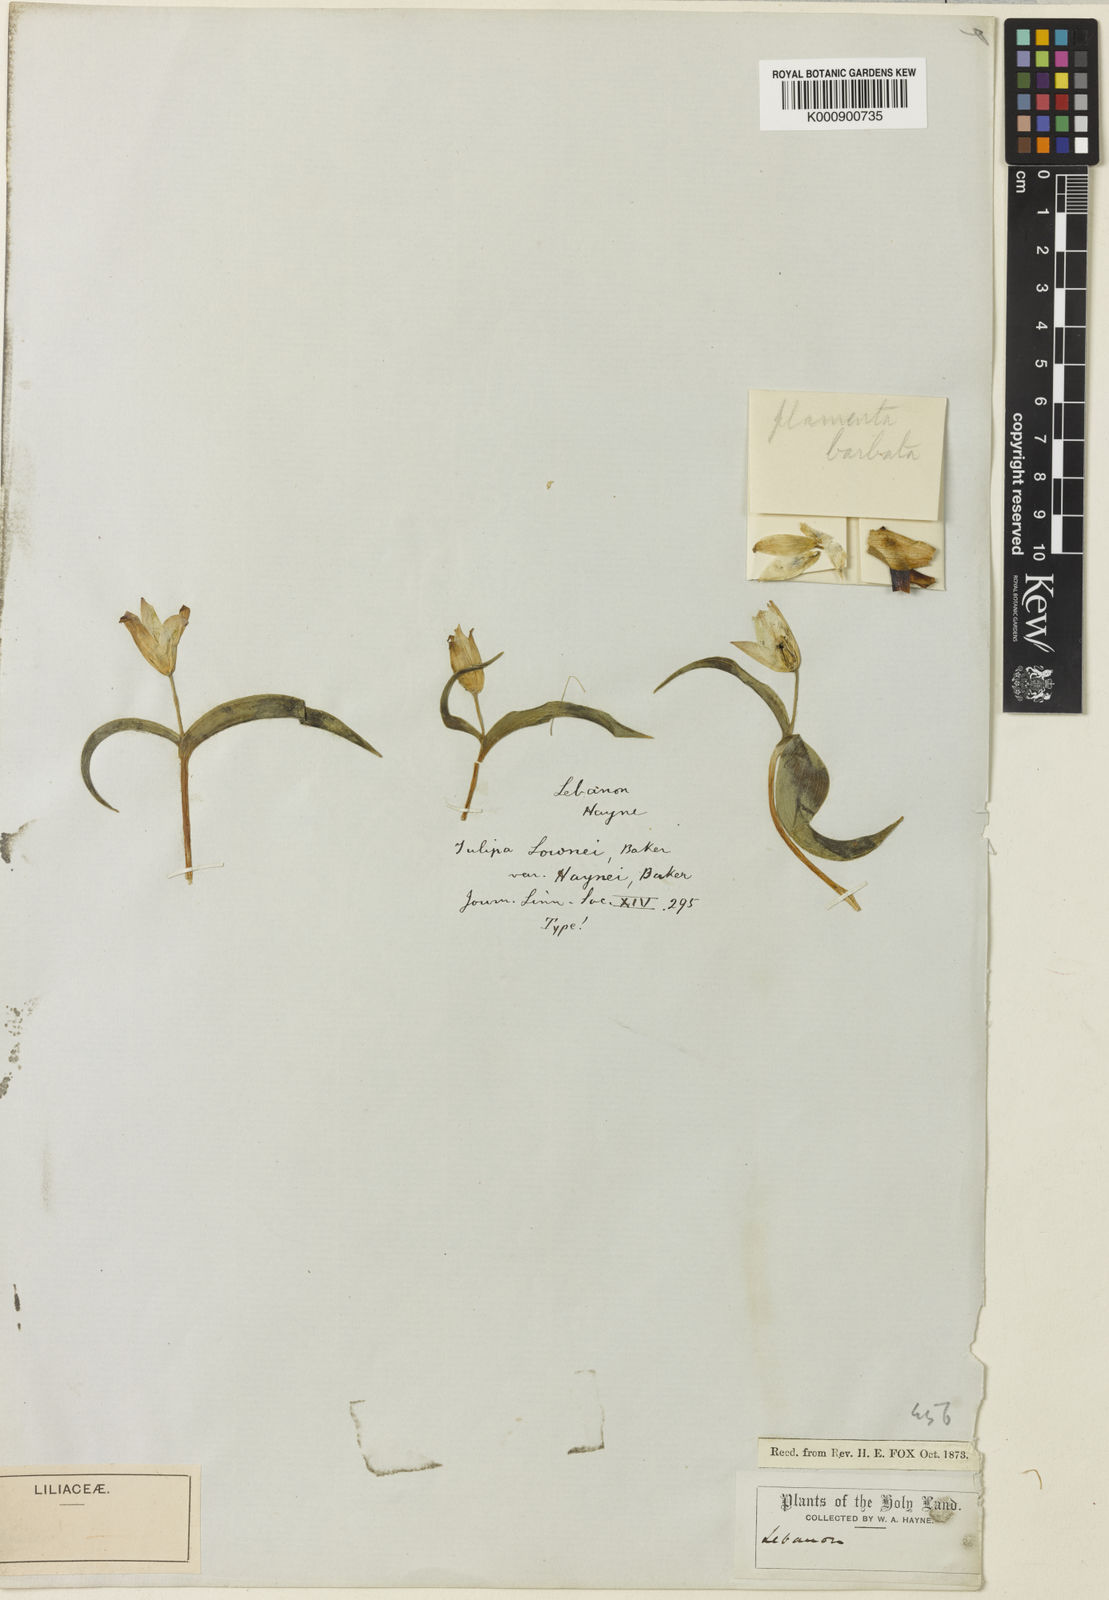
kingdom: Plantae
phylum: Tracheophyta
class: Liliopsida
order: Liliales
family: Liliaceae
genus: Tulipa
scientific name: Tulipa humilis
